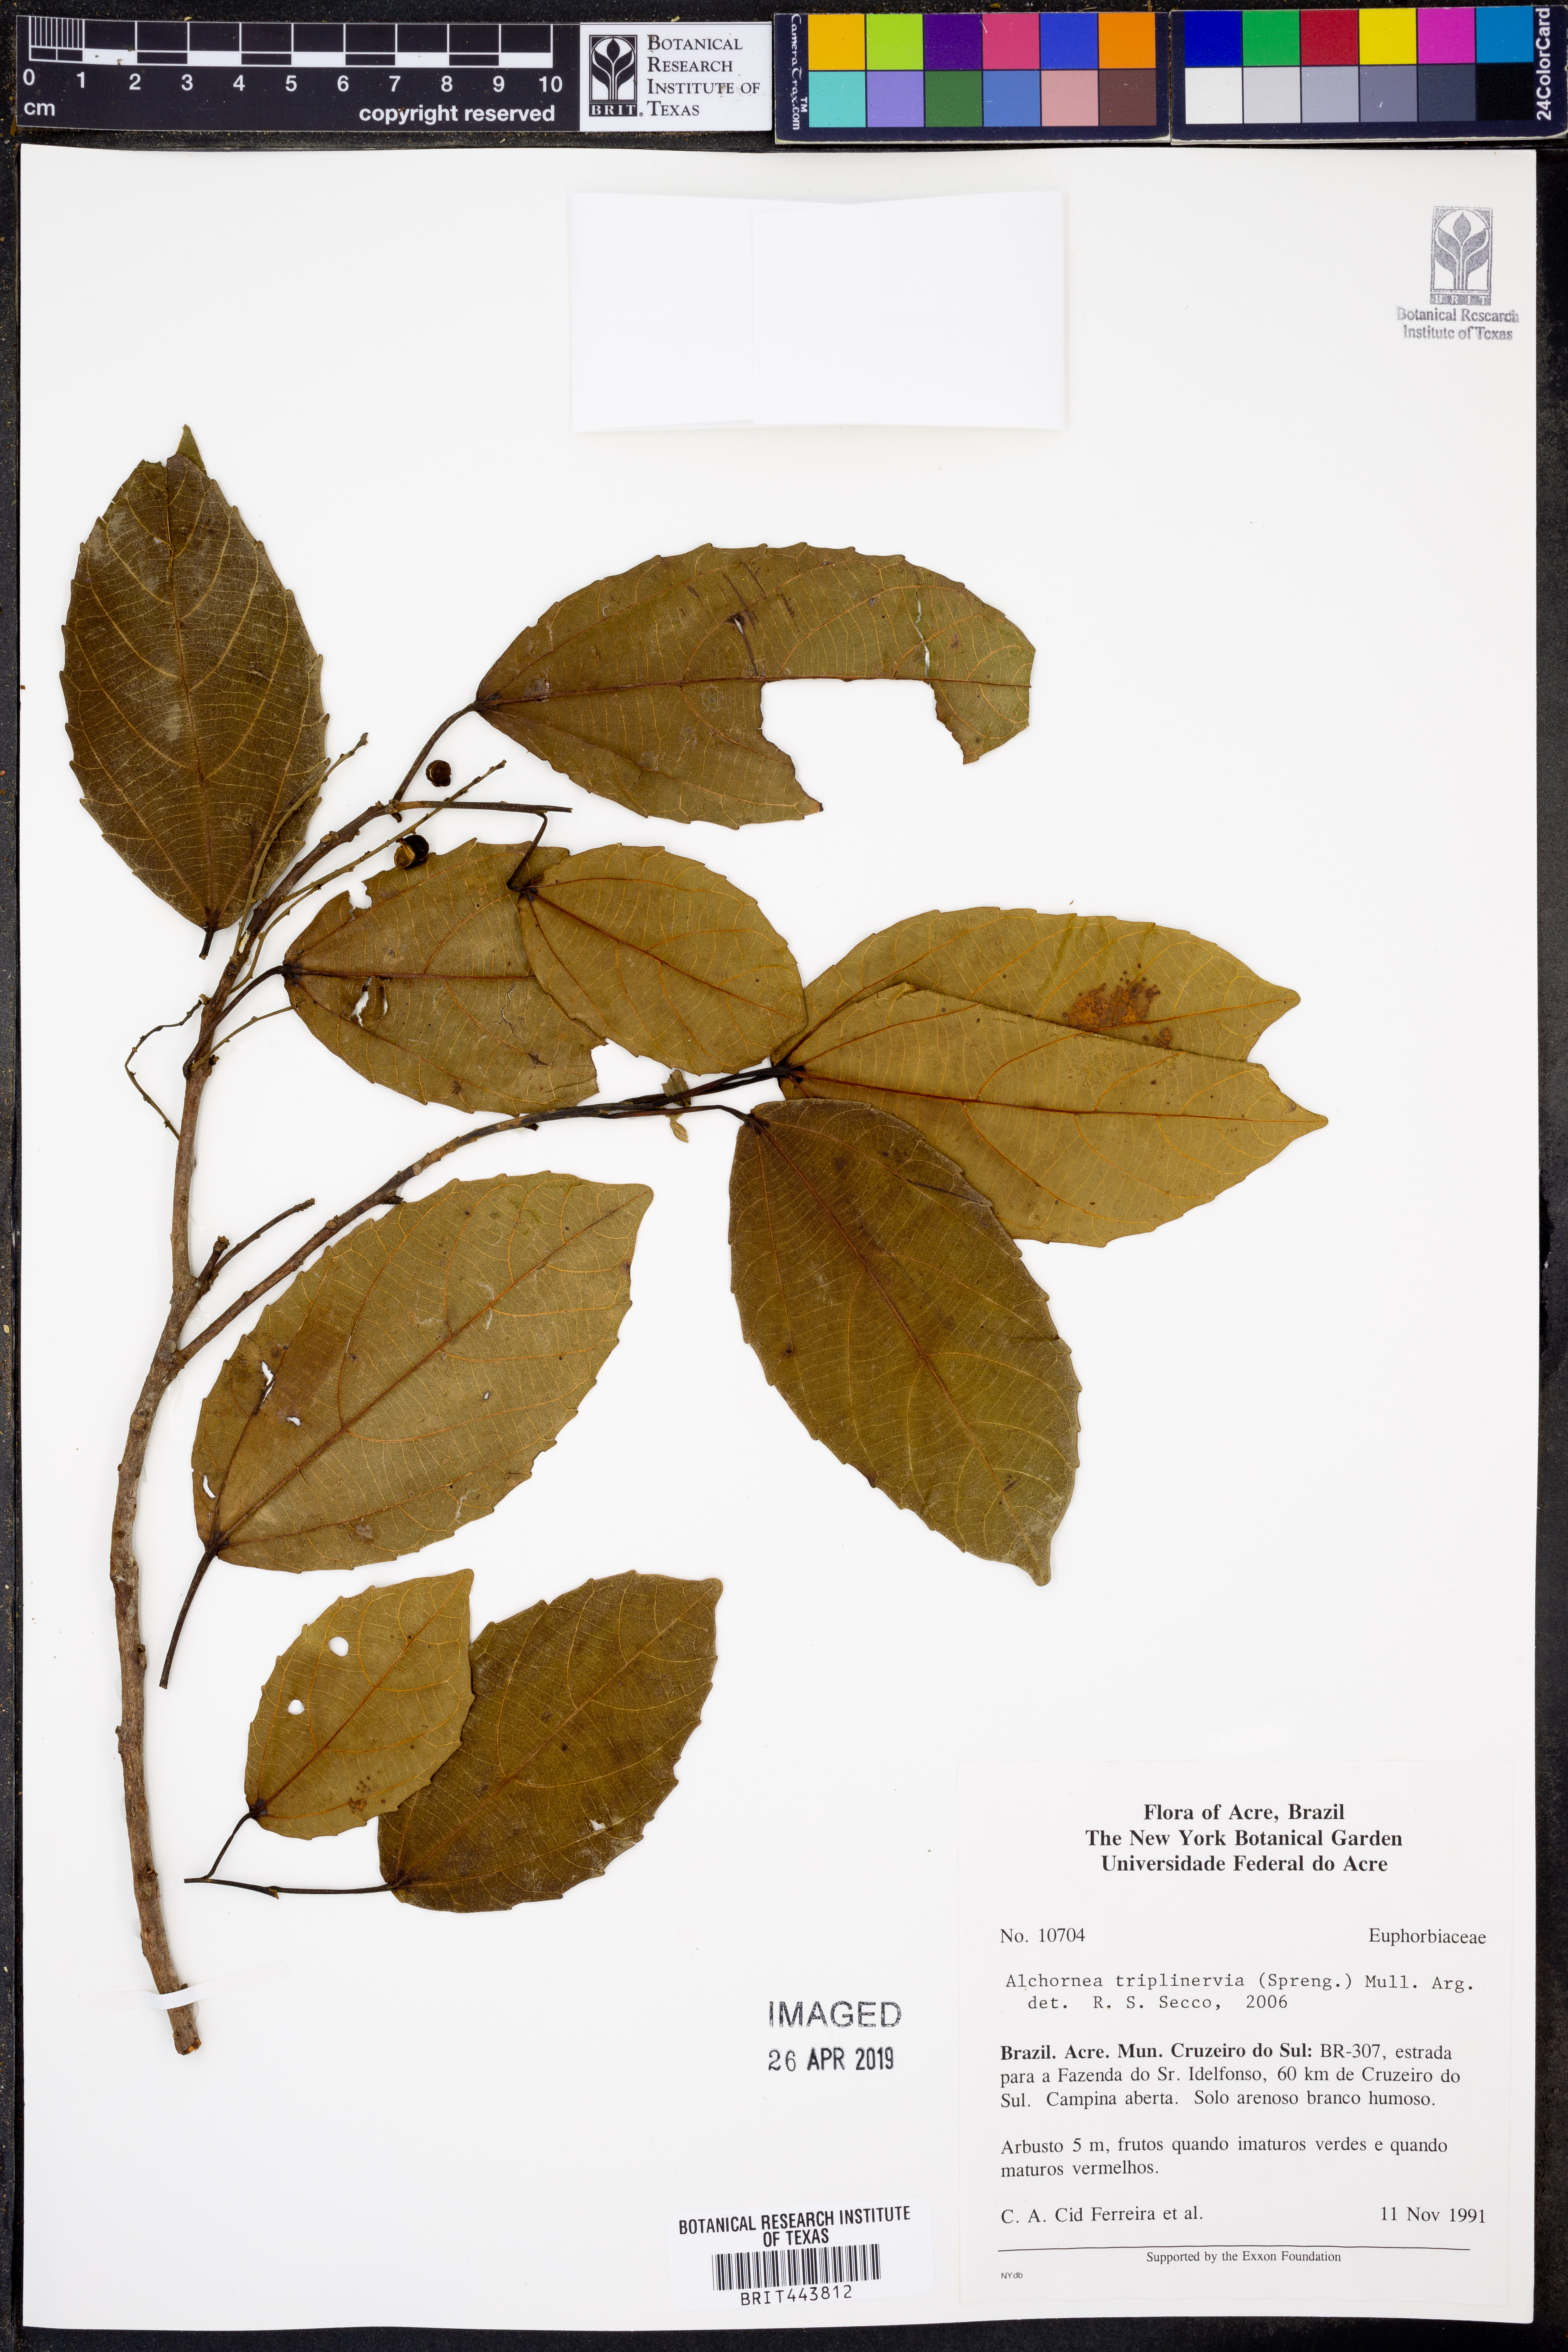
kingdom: Plantae
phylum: Tracheophyta
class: Magnoliopsida
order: Malpighiales
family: Euphorbiaceae
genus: Alchornea
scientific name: Alchornea triplinervia
